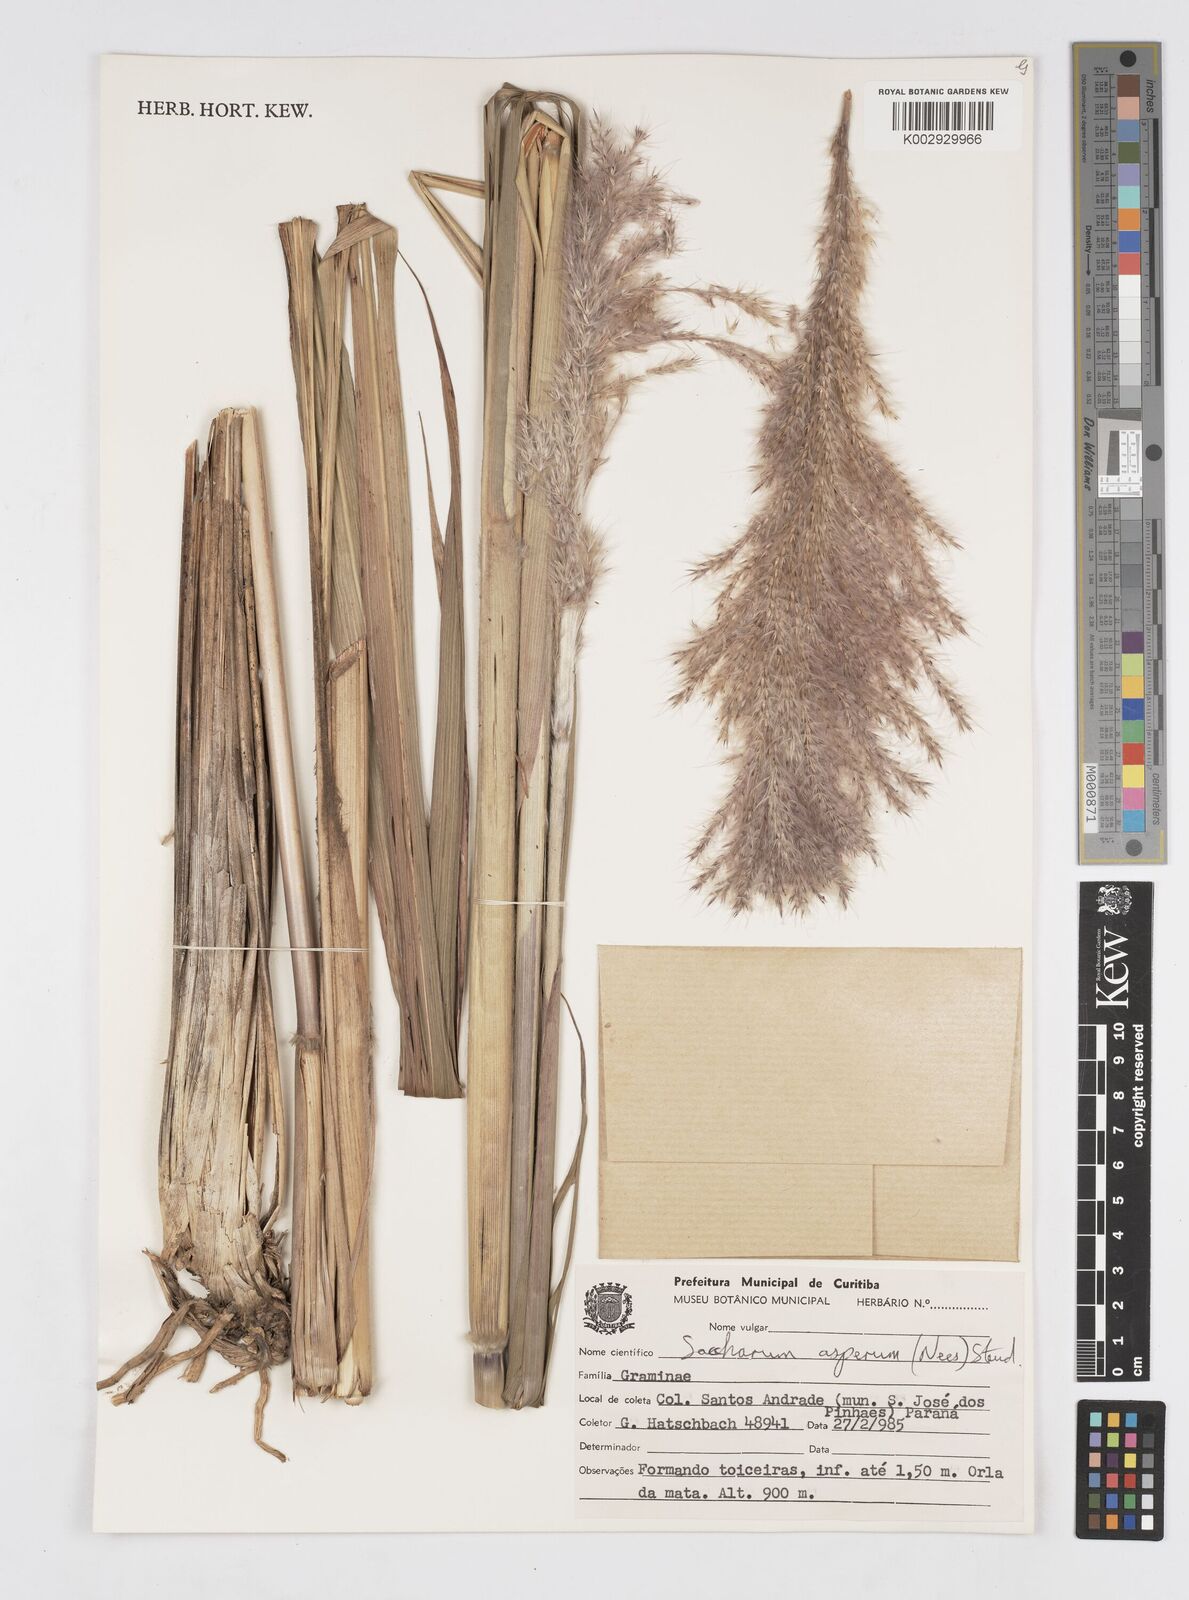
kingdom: Plantae
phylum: Tracheophyta
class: Liliopsida
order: Poales
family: Poaceae
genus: Erianthus
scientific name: Erianthus asper
